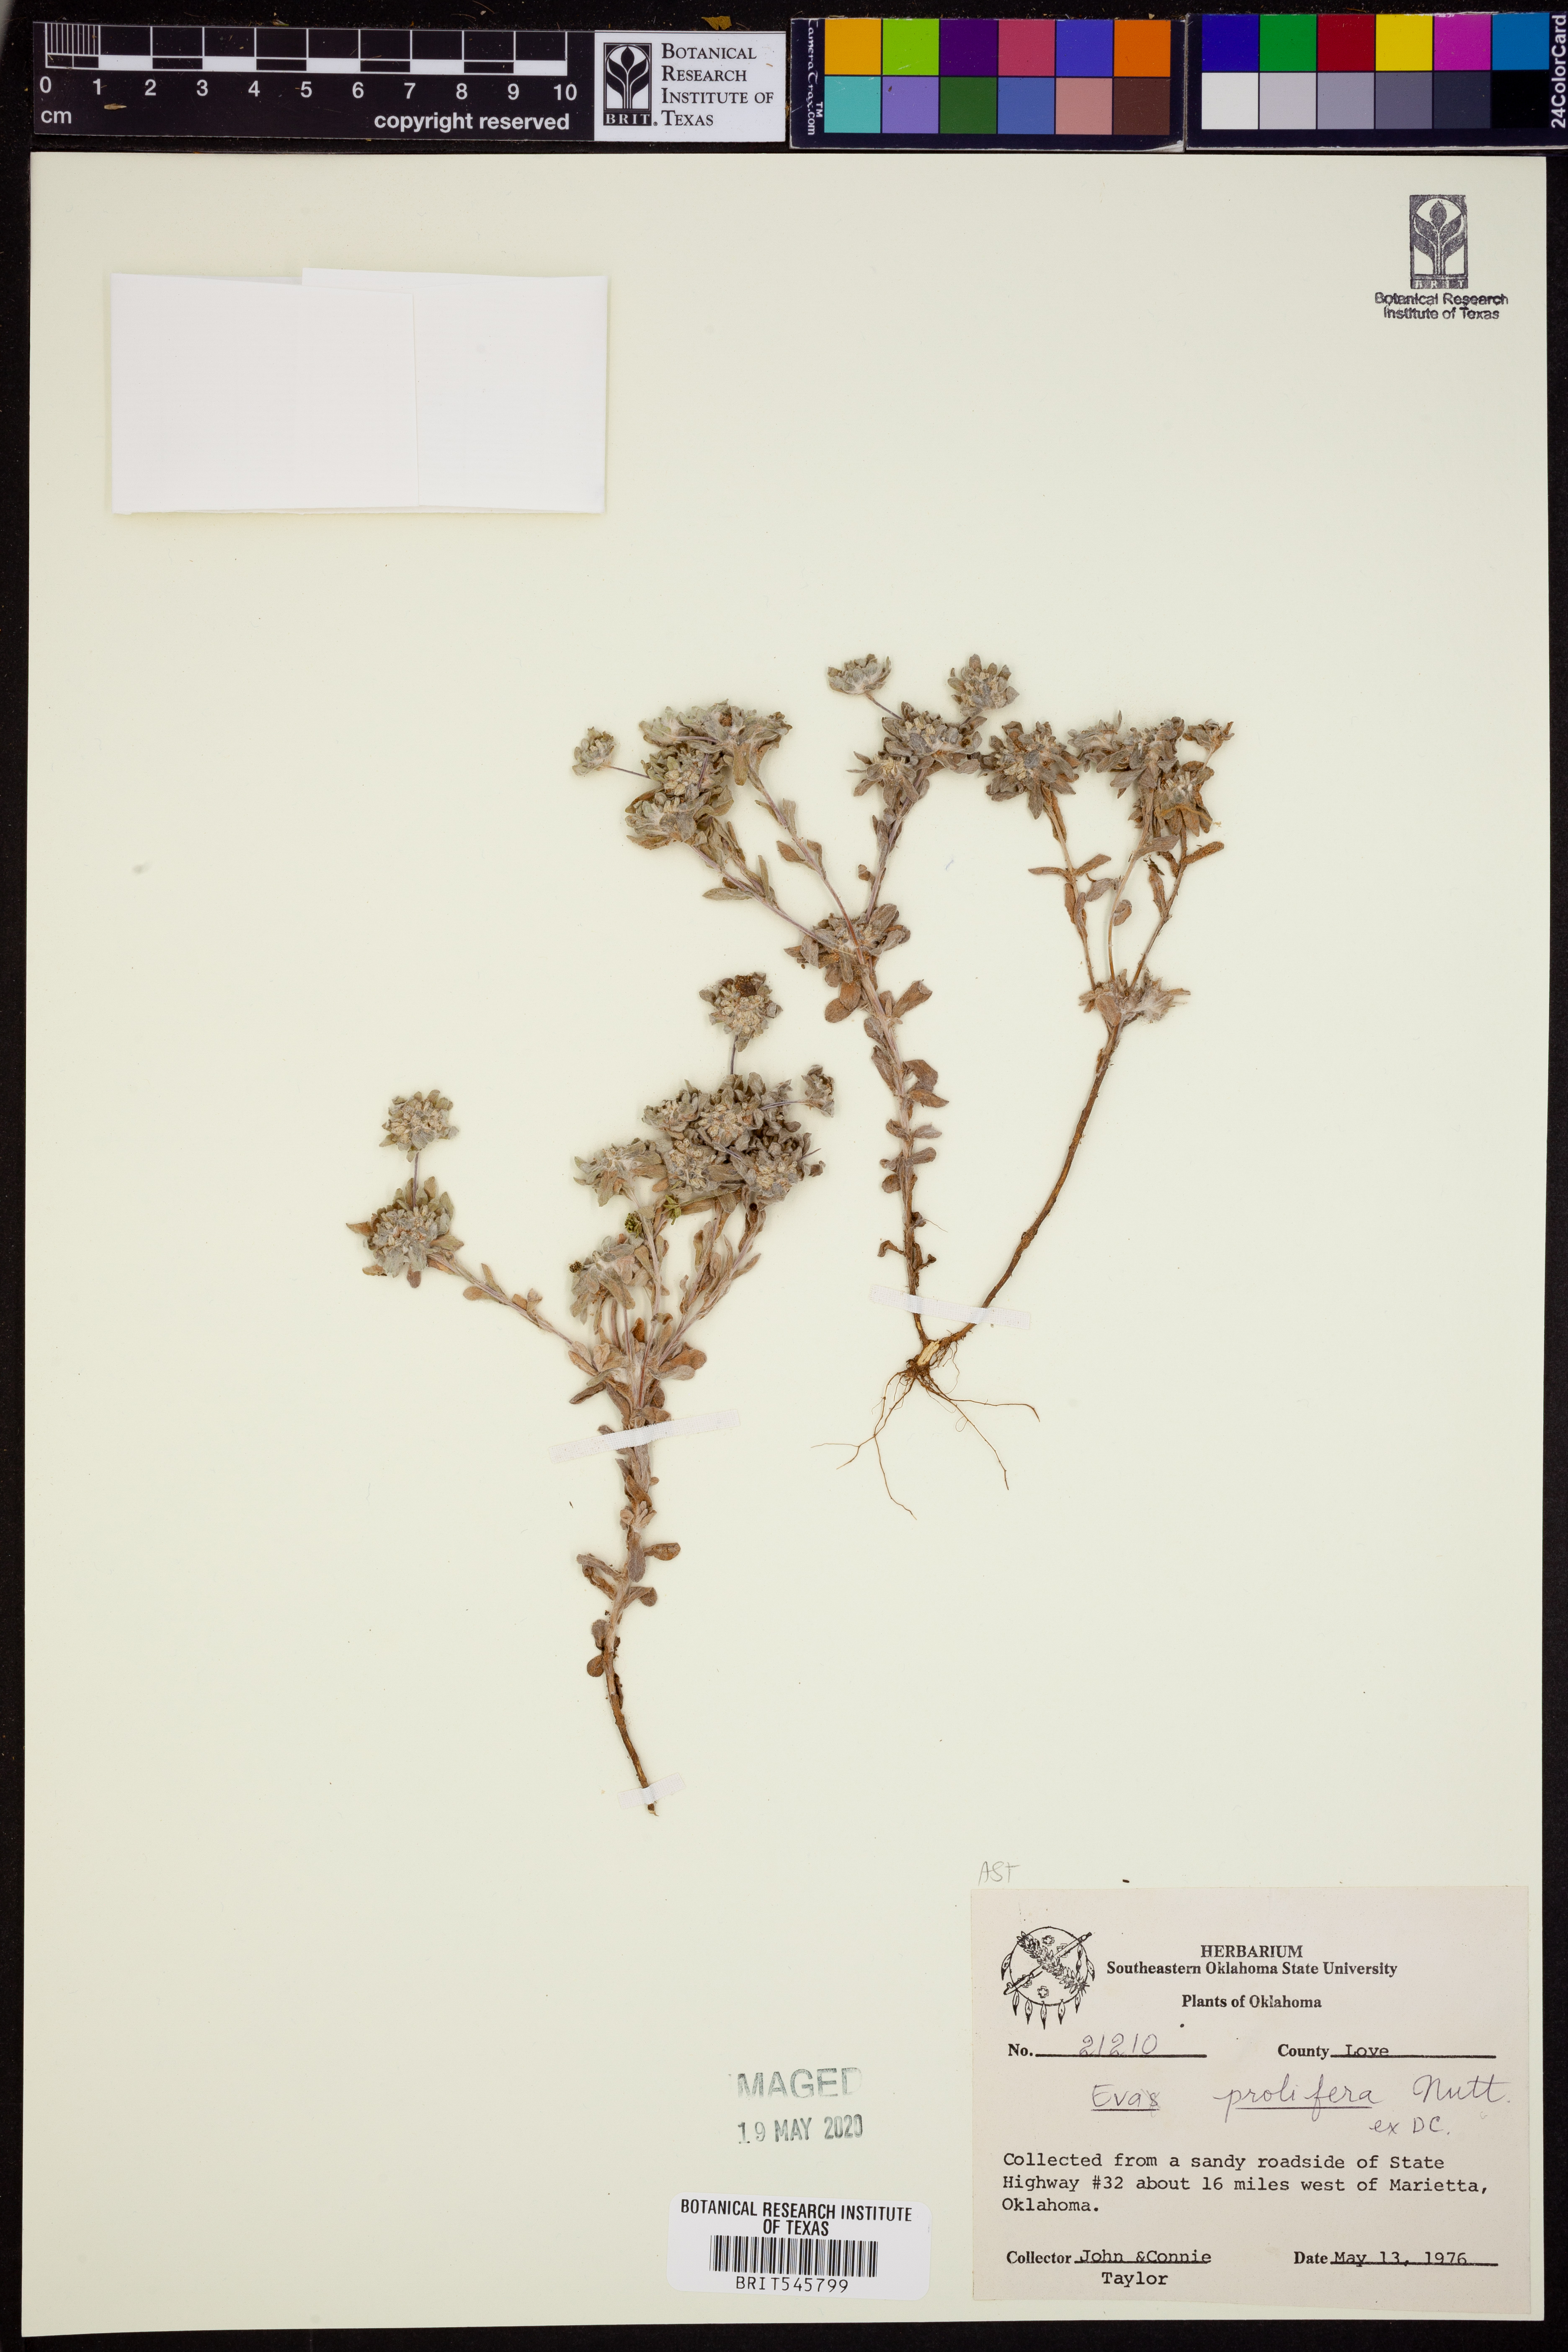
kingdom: Plantae
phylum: Tracheophyta
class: Magnoliopsida
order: Asterales
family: Asteraceae
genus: Diaperia
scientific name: Diaperia prolifera
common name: Big-head rabbit-tobacco
